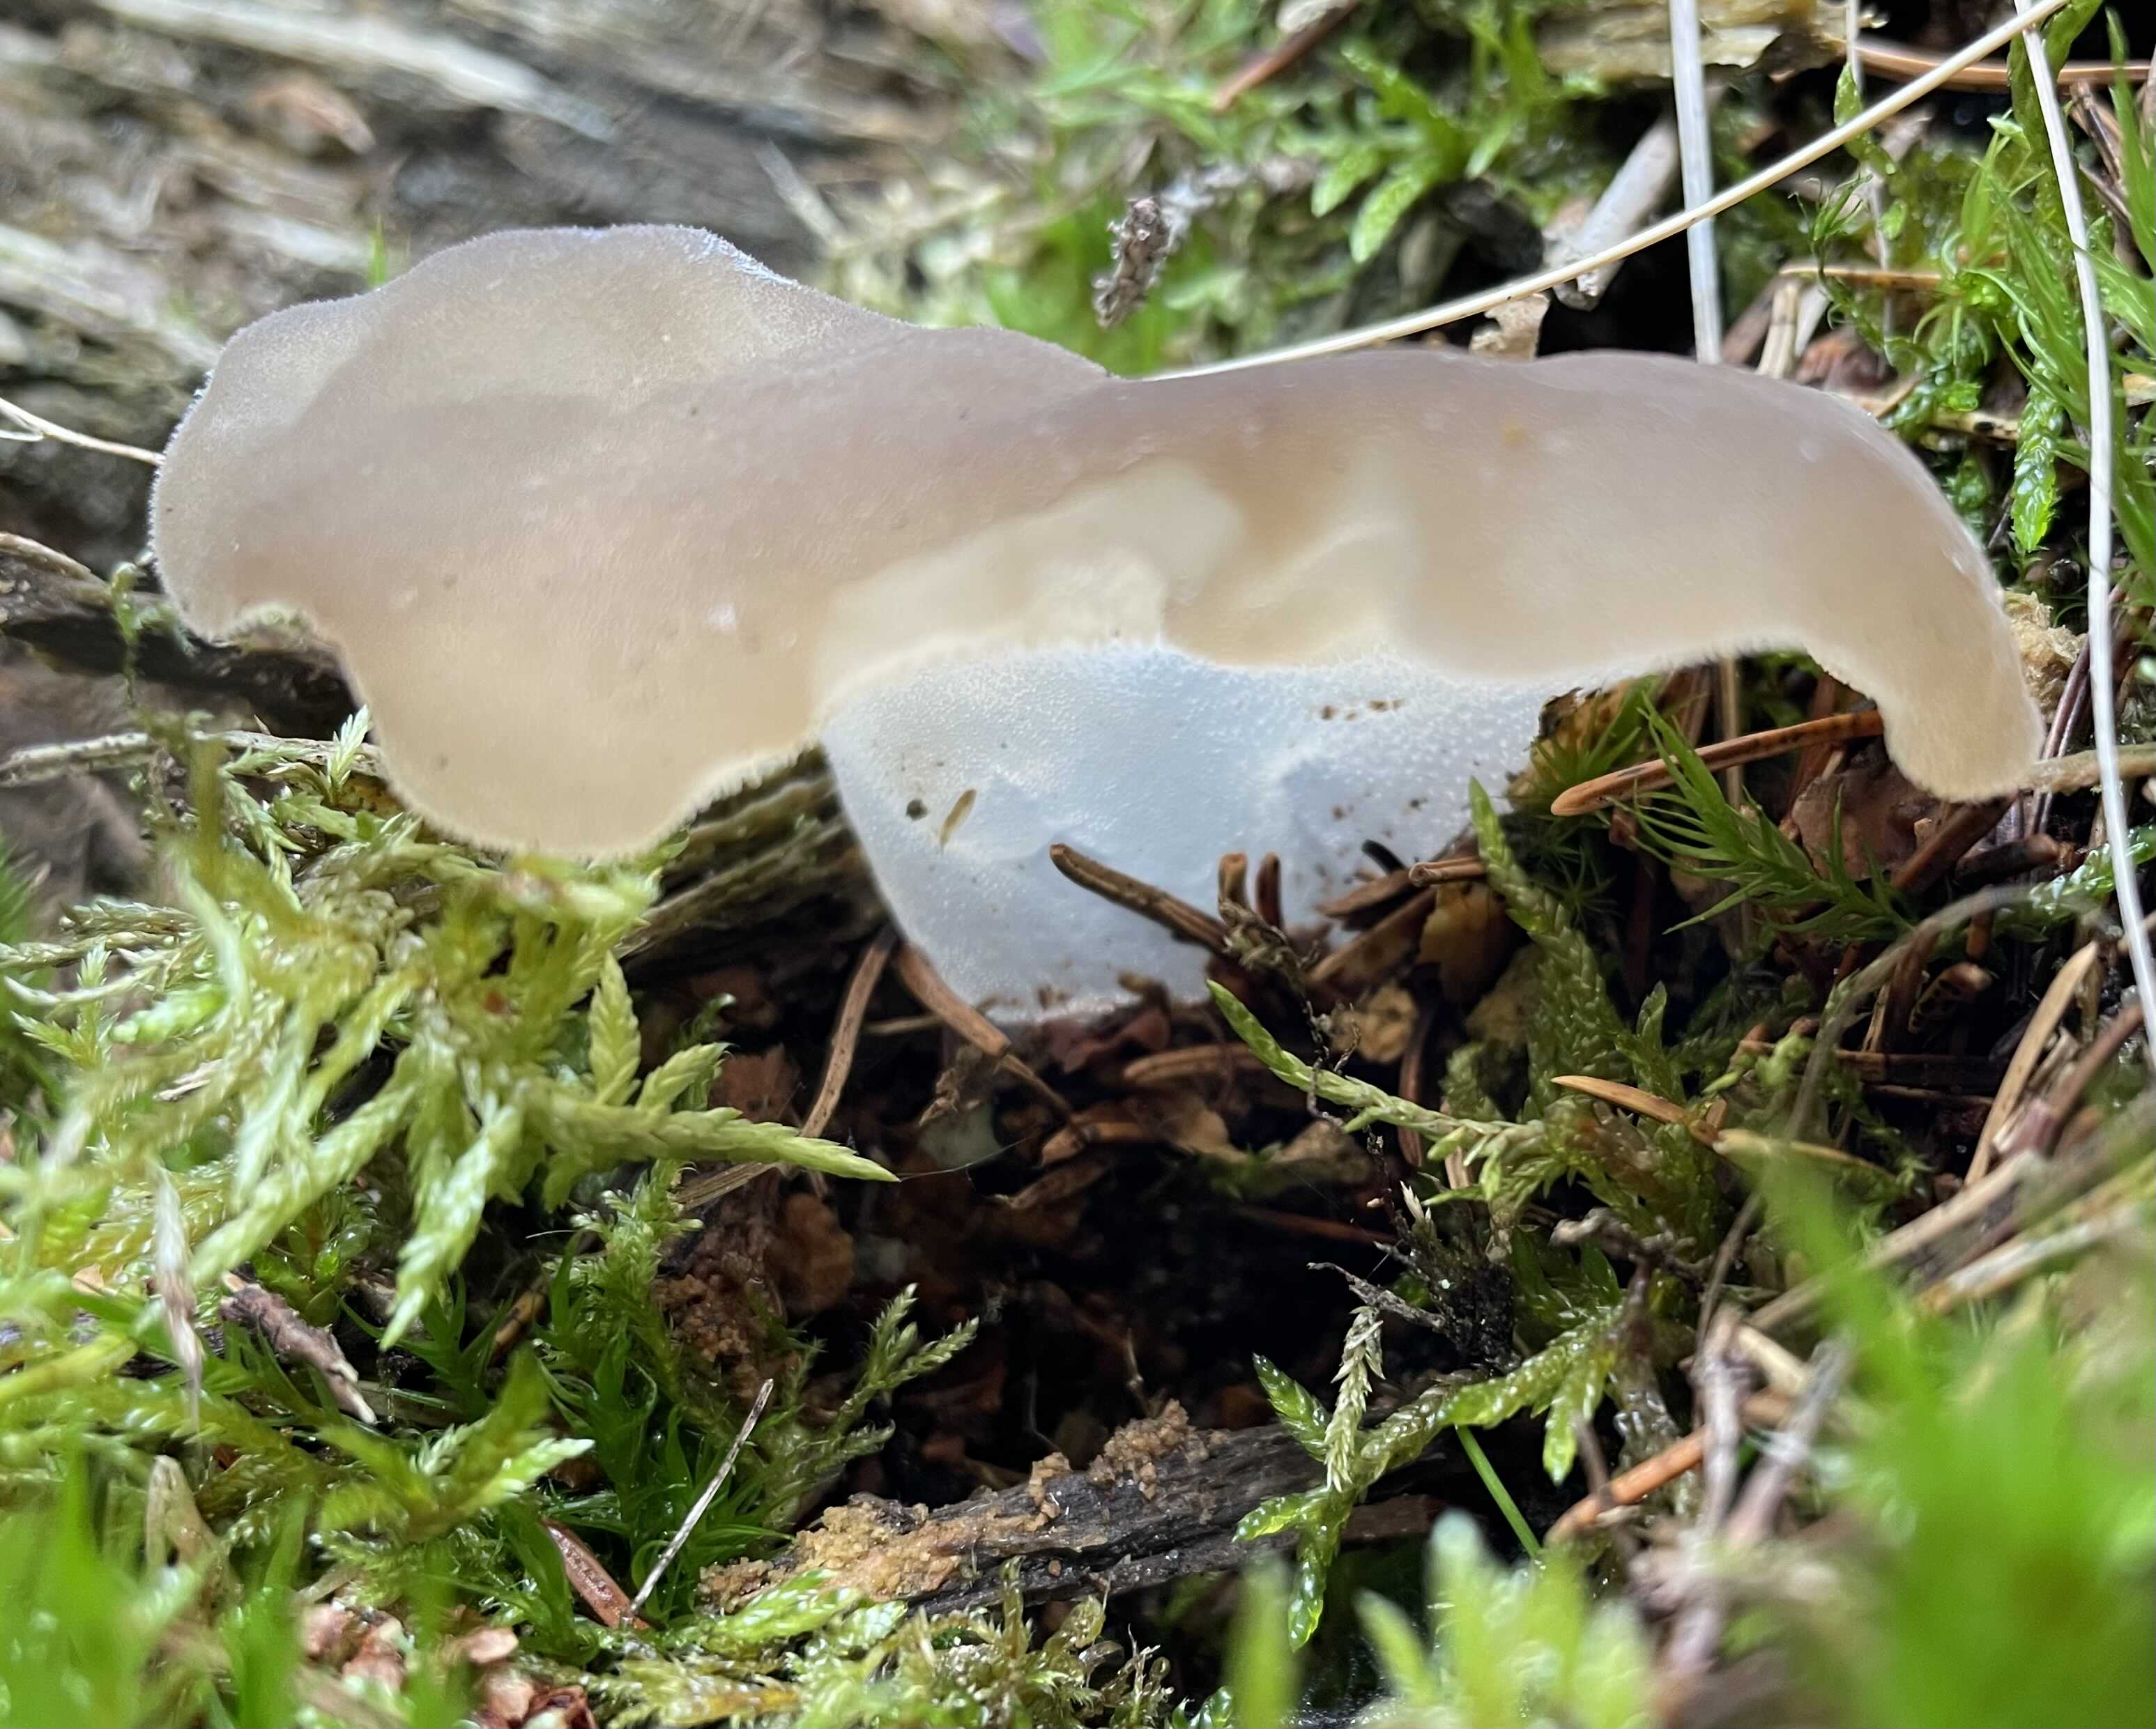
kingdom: Fungi
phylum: Basidiomycota
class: Agaricomycetes
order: Auriculariales
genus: Pseudohydnum
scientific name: Pseudohydnum gelatinosum
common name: bævretand
